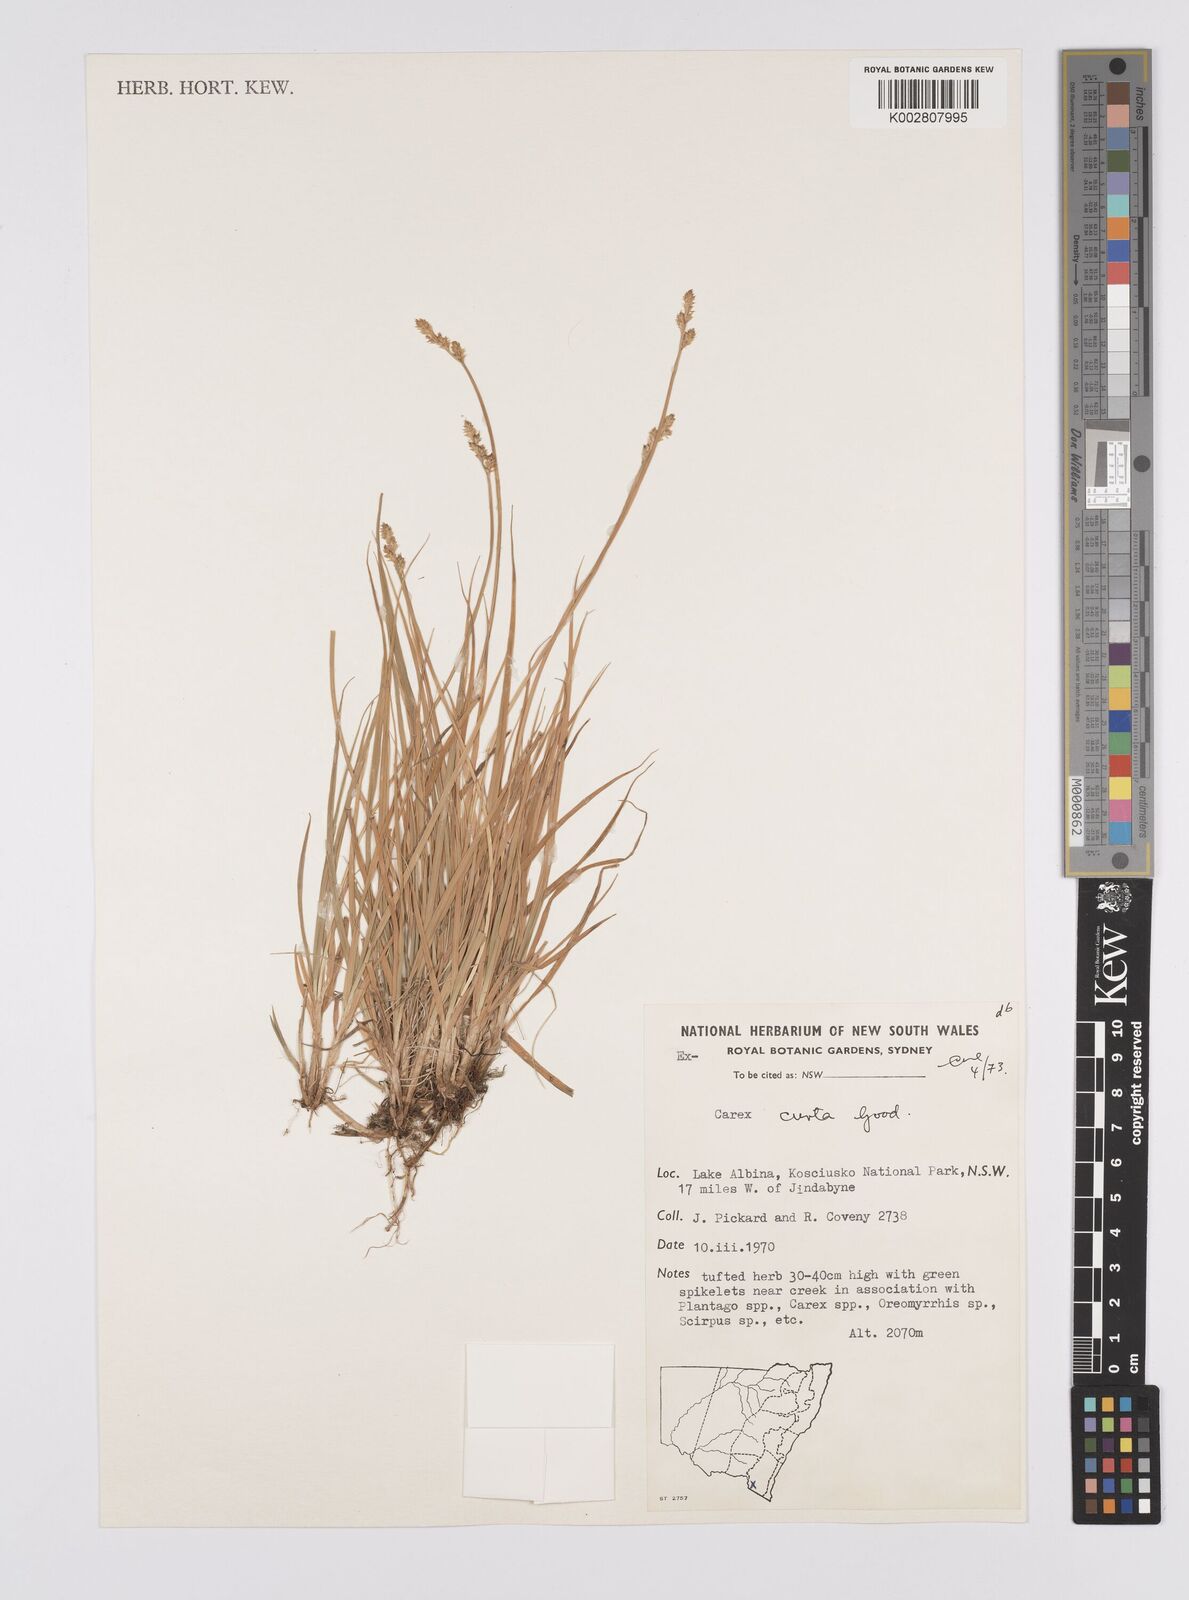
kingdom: Plantae
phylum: Tracheophyta
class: Liliopsida
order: Poales
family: Cyperaceae
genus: Carex
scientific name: Carex curta
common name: White sedge
